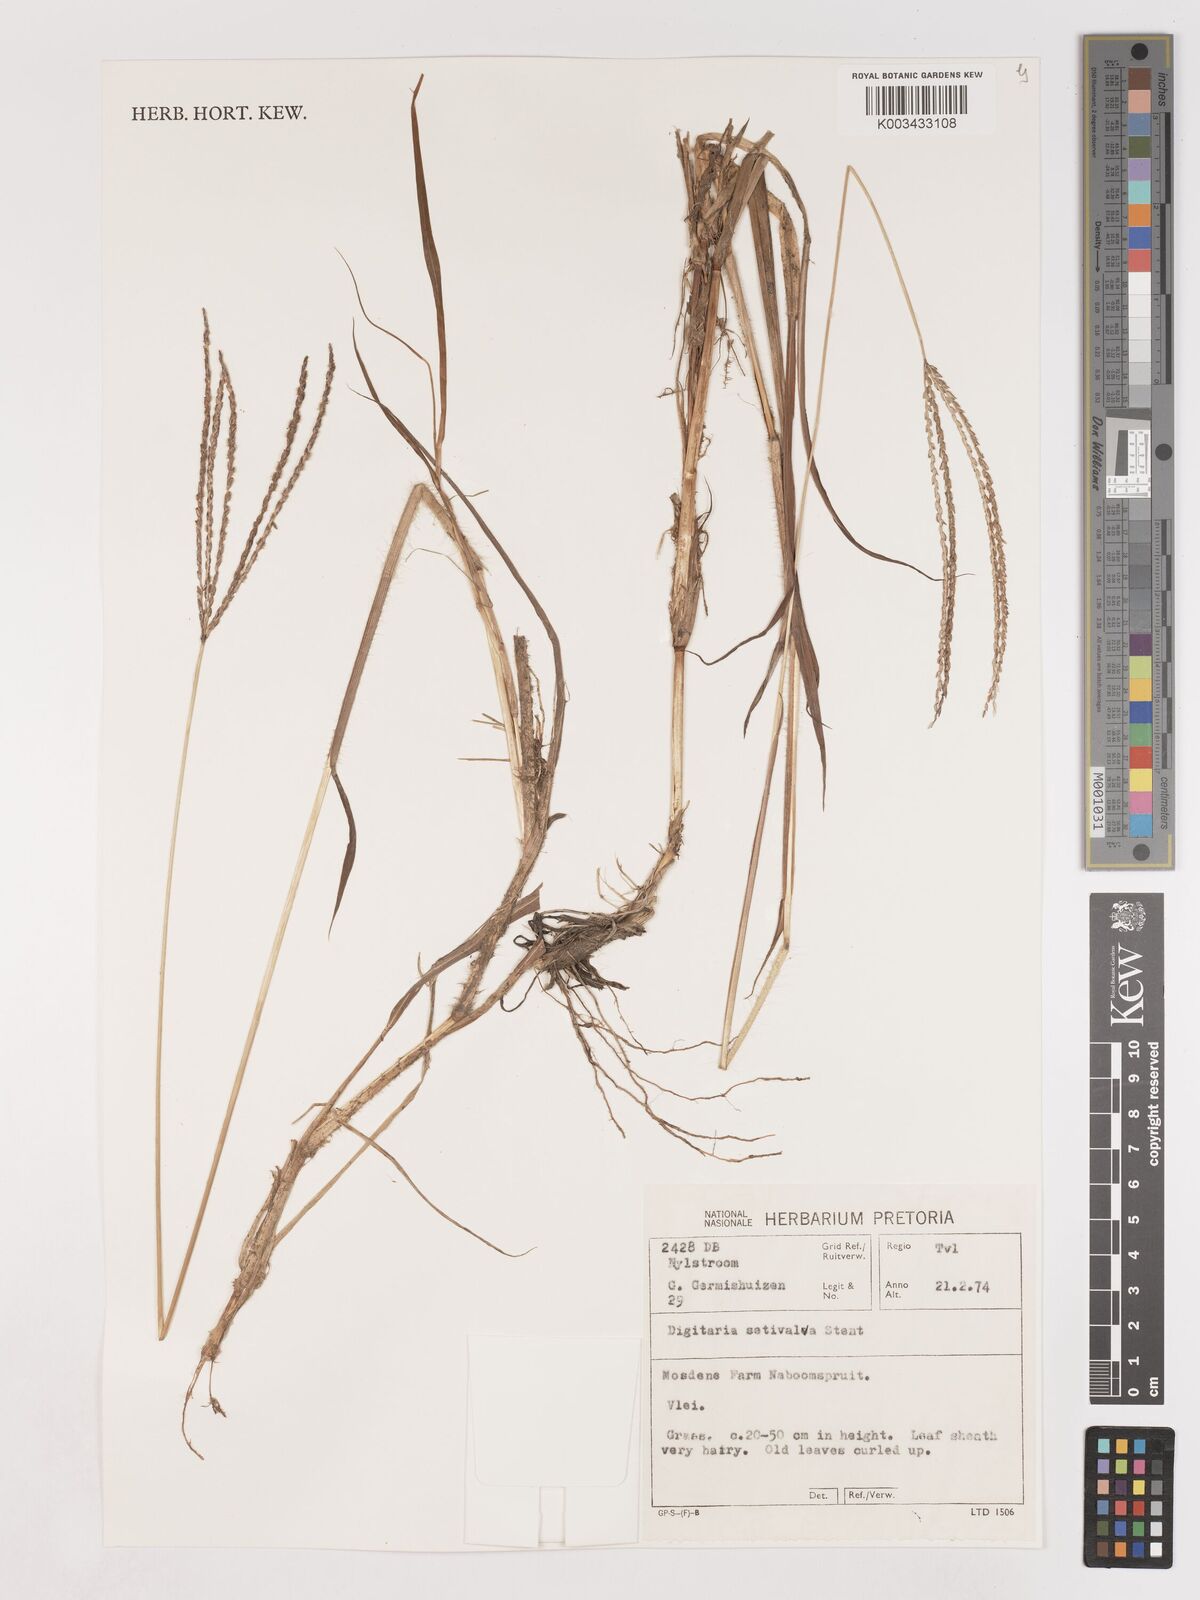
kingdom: Plantae
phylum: Tracheophyta
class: Liliopsida
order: Poales
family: Poaceae
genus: Digitaria
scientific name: Digitaria milanjiana
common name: Madagascar crabgrass
